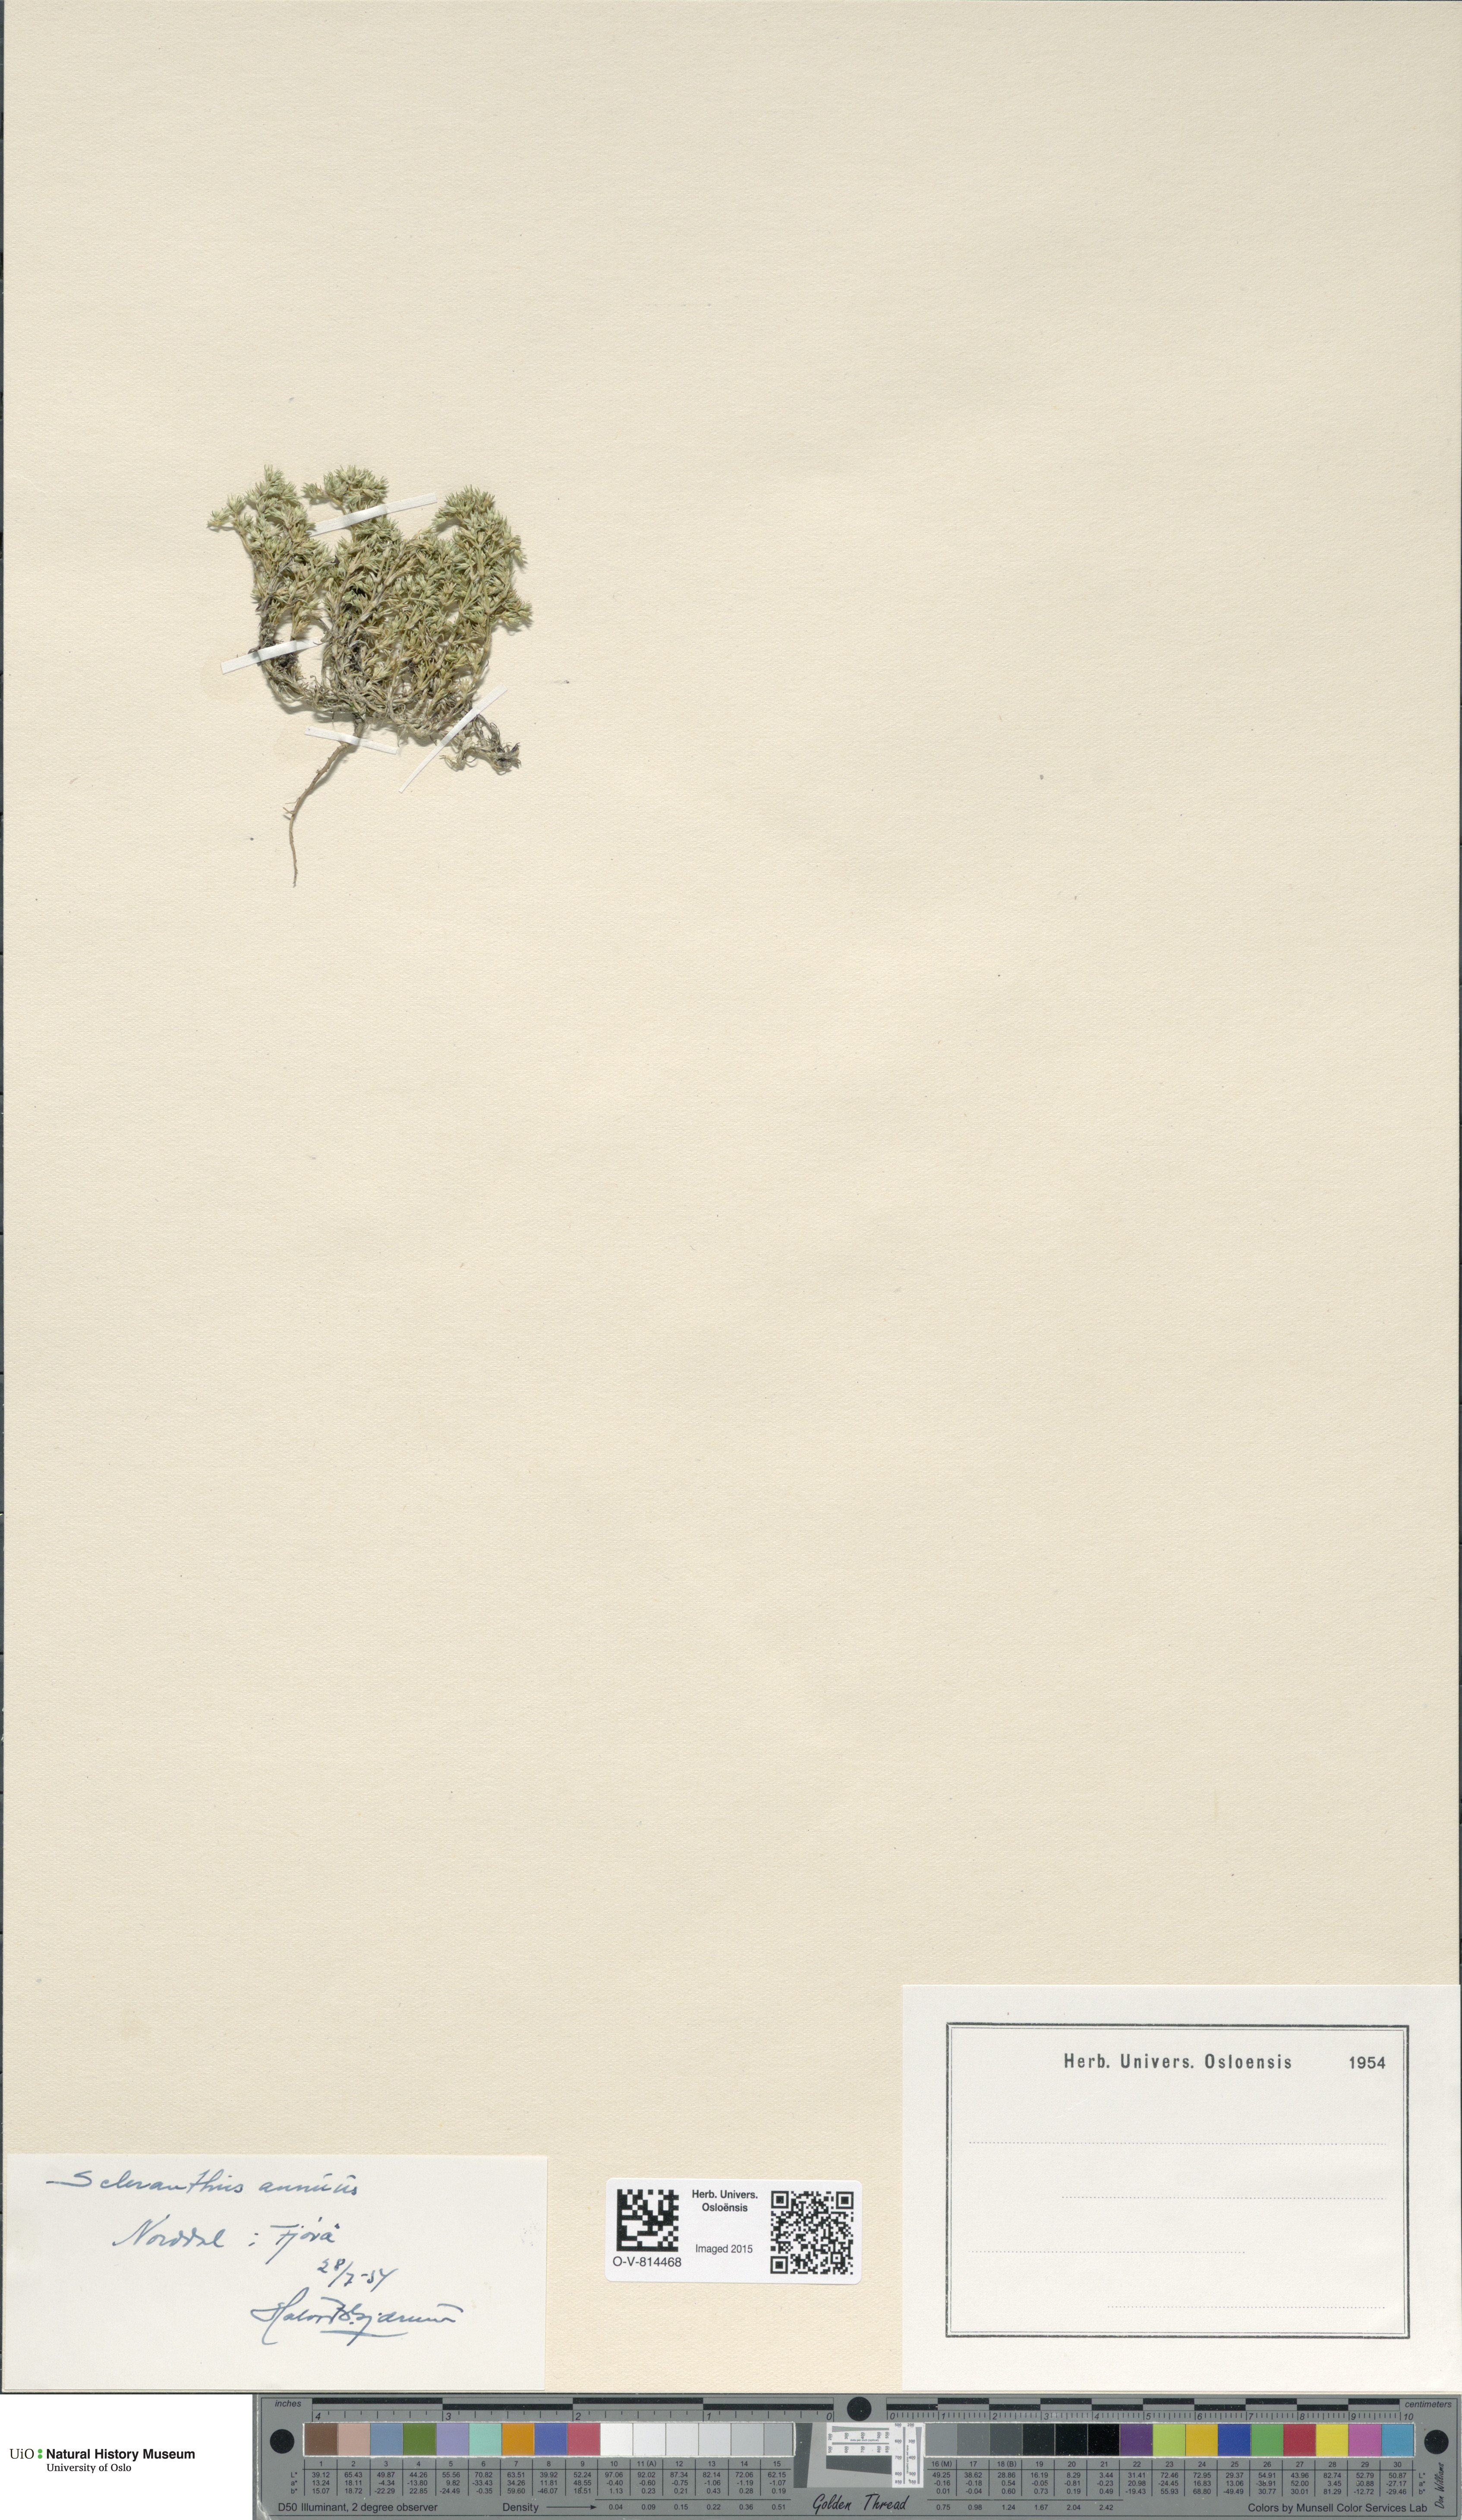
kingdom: Plantae
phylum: Tracheophyta
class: Magnoliopsida
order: Caryophyllales
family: Caryophyllaceae
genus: Scleranthus
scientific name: Scleranthus annuus
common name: Annual knawel
